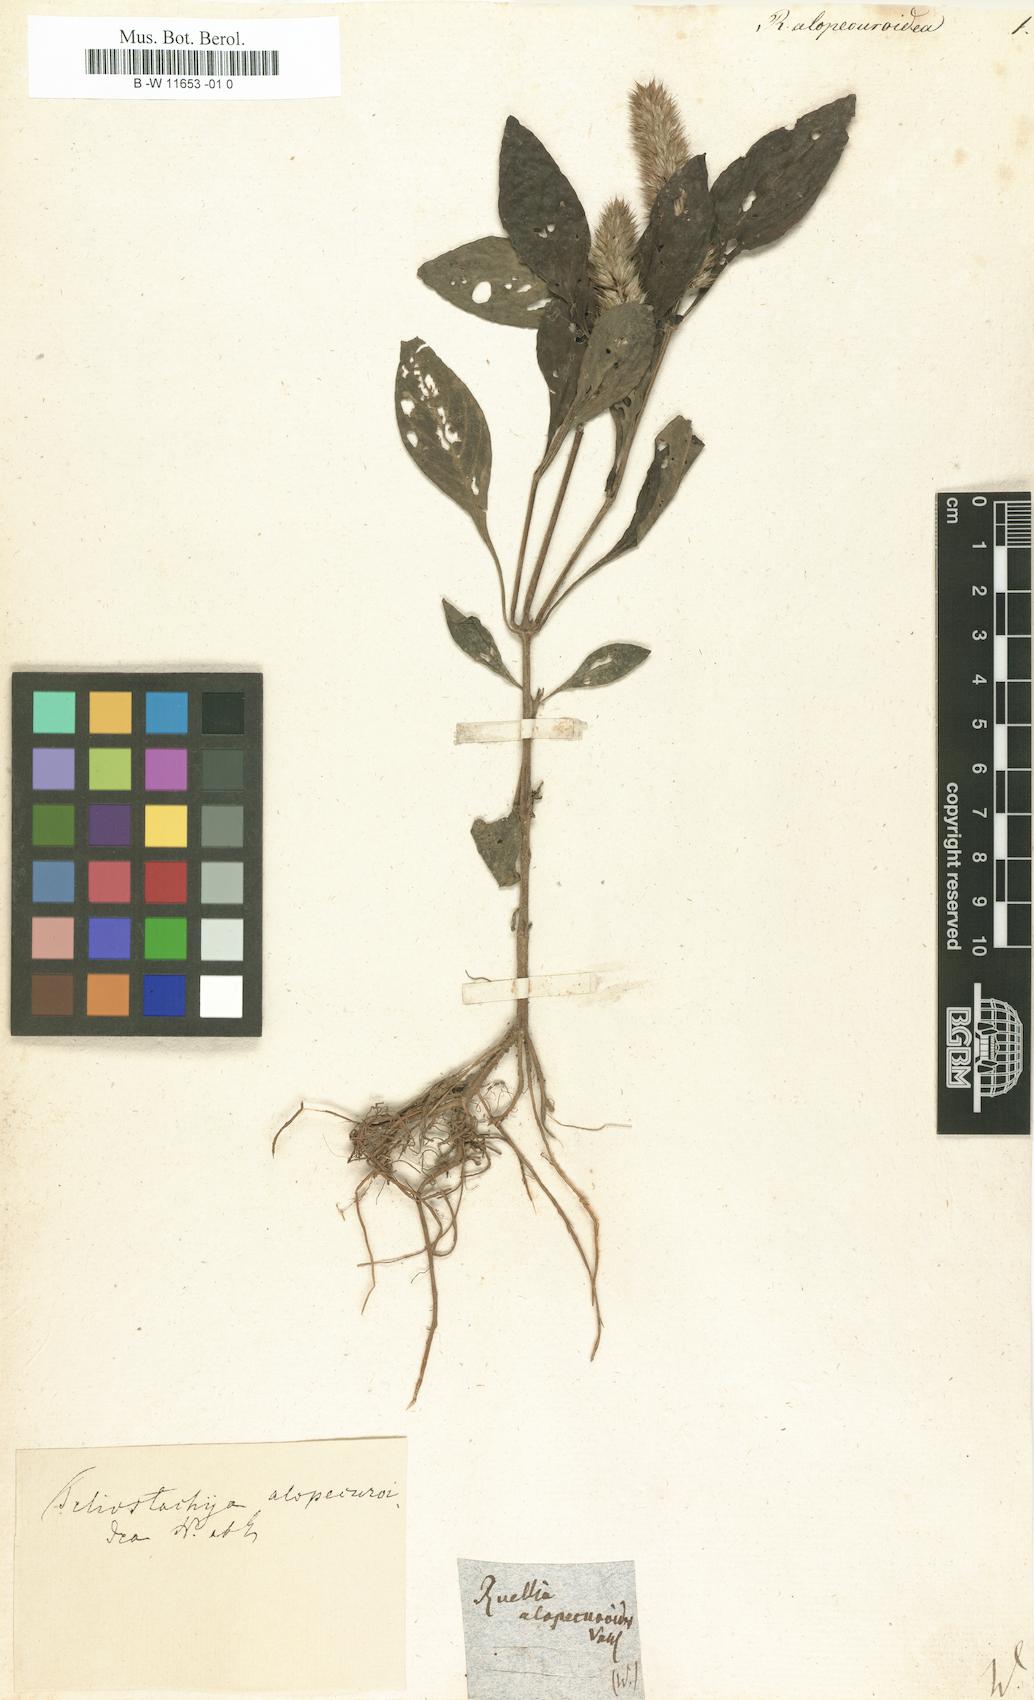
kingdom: Plantae
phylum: Tracheophyta
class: Magnoliopsida
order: Lamiales
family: Acanthaceae
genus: Lepidagathis
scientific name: Lepidagathis alopecuroidea
